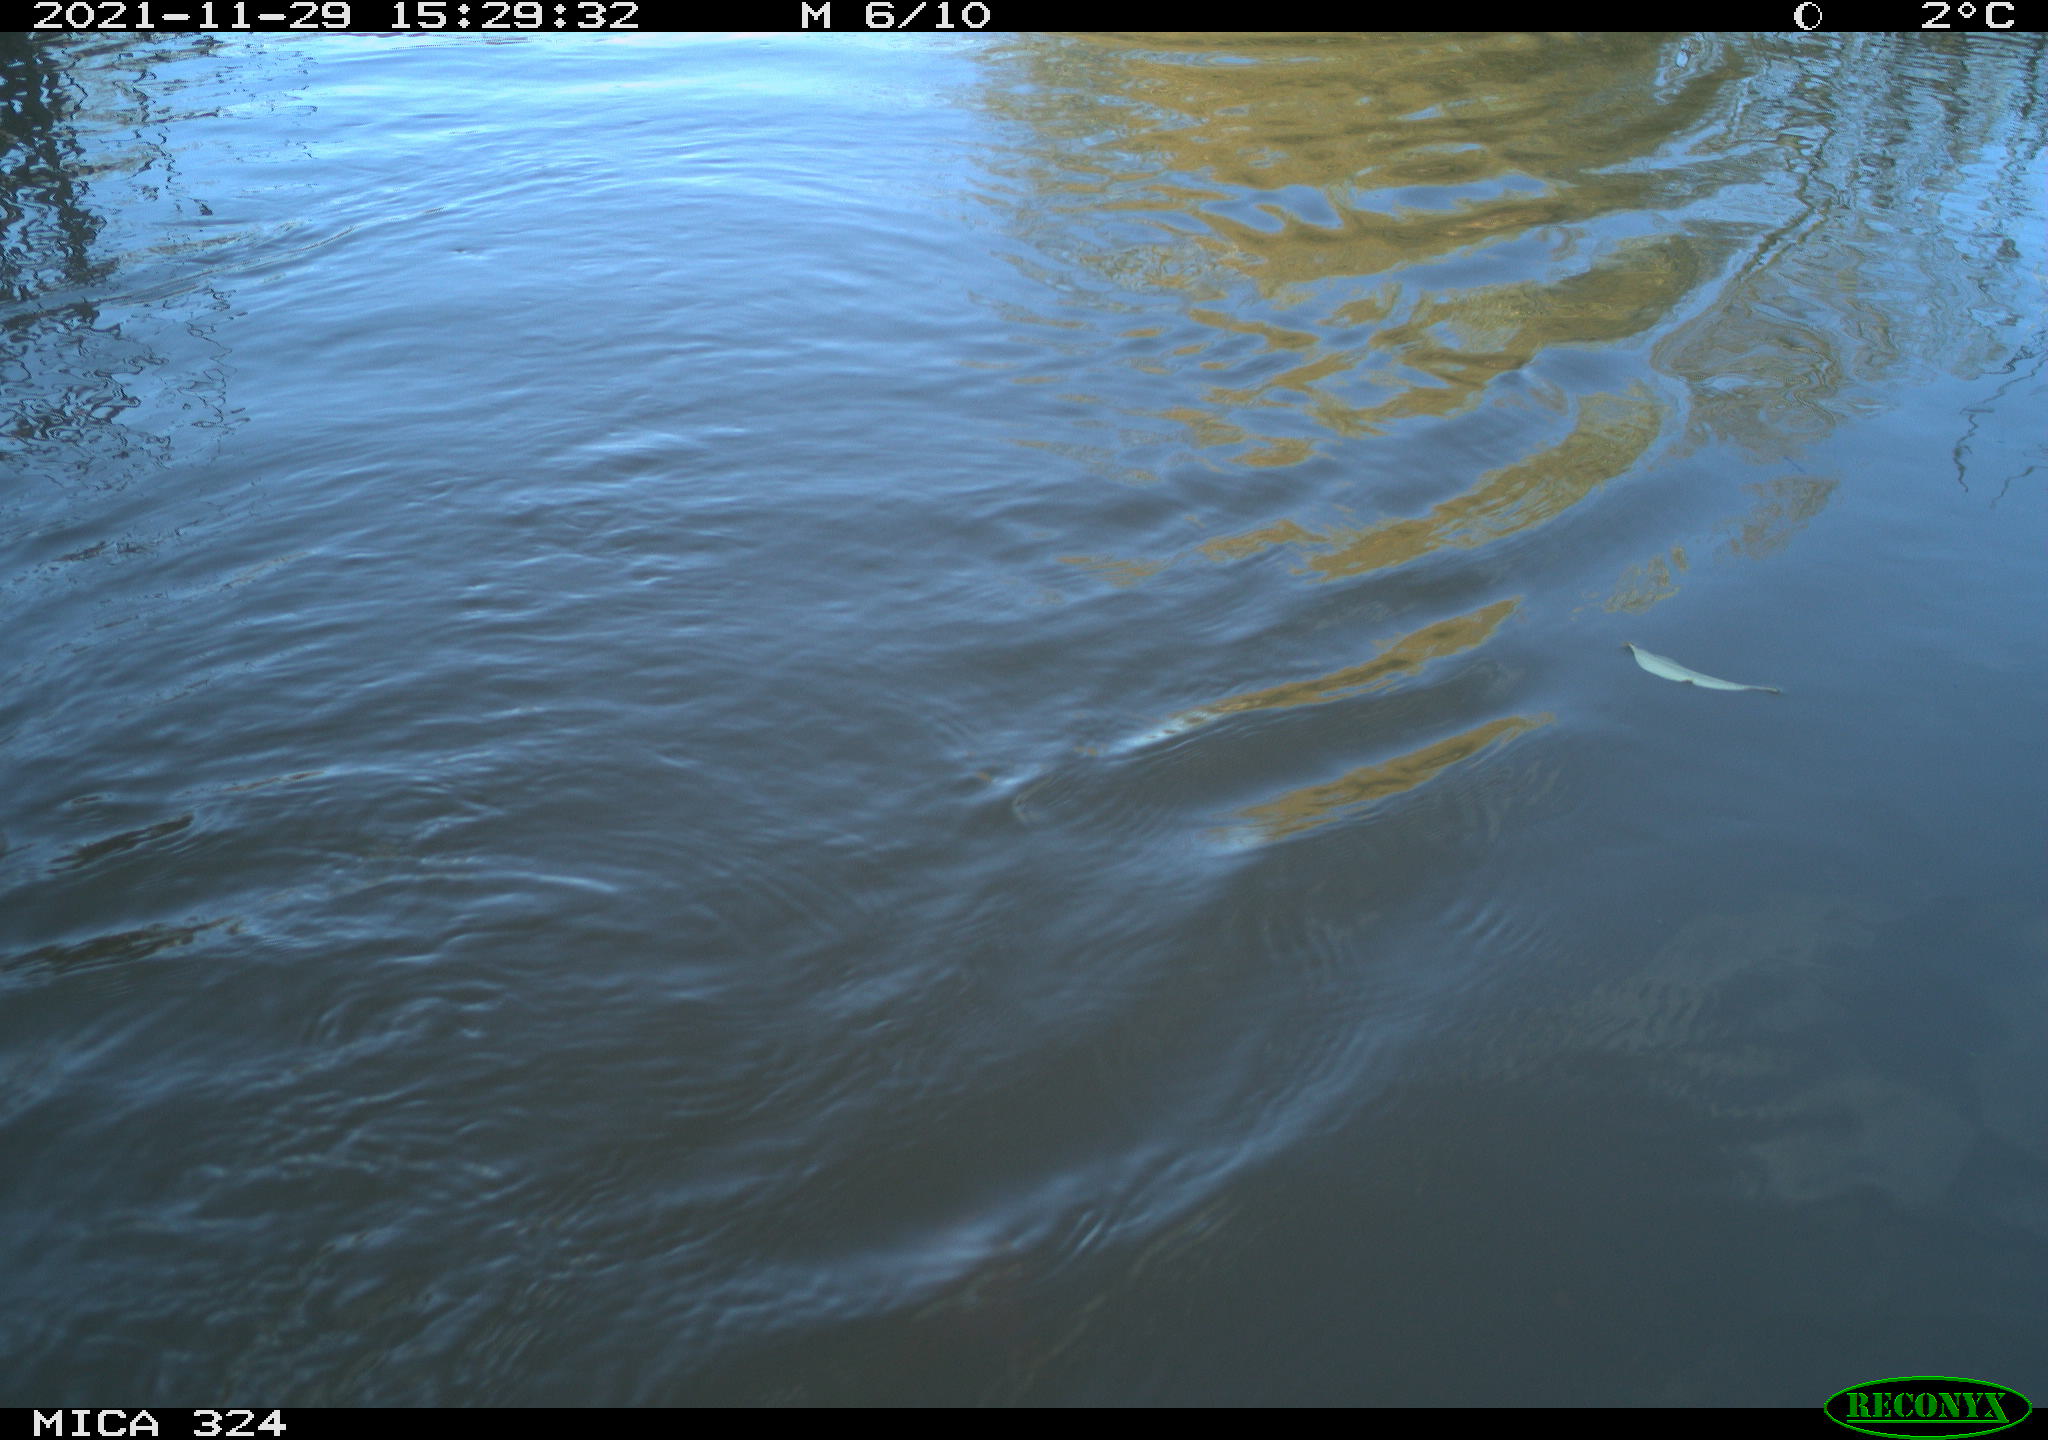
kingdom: Animalia
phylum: Chordata
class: Mammalia
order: Rodentia
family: Cricetidae
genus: Ondatra
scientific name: Ondatra zibethicus
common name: Muskrat
